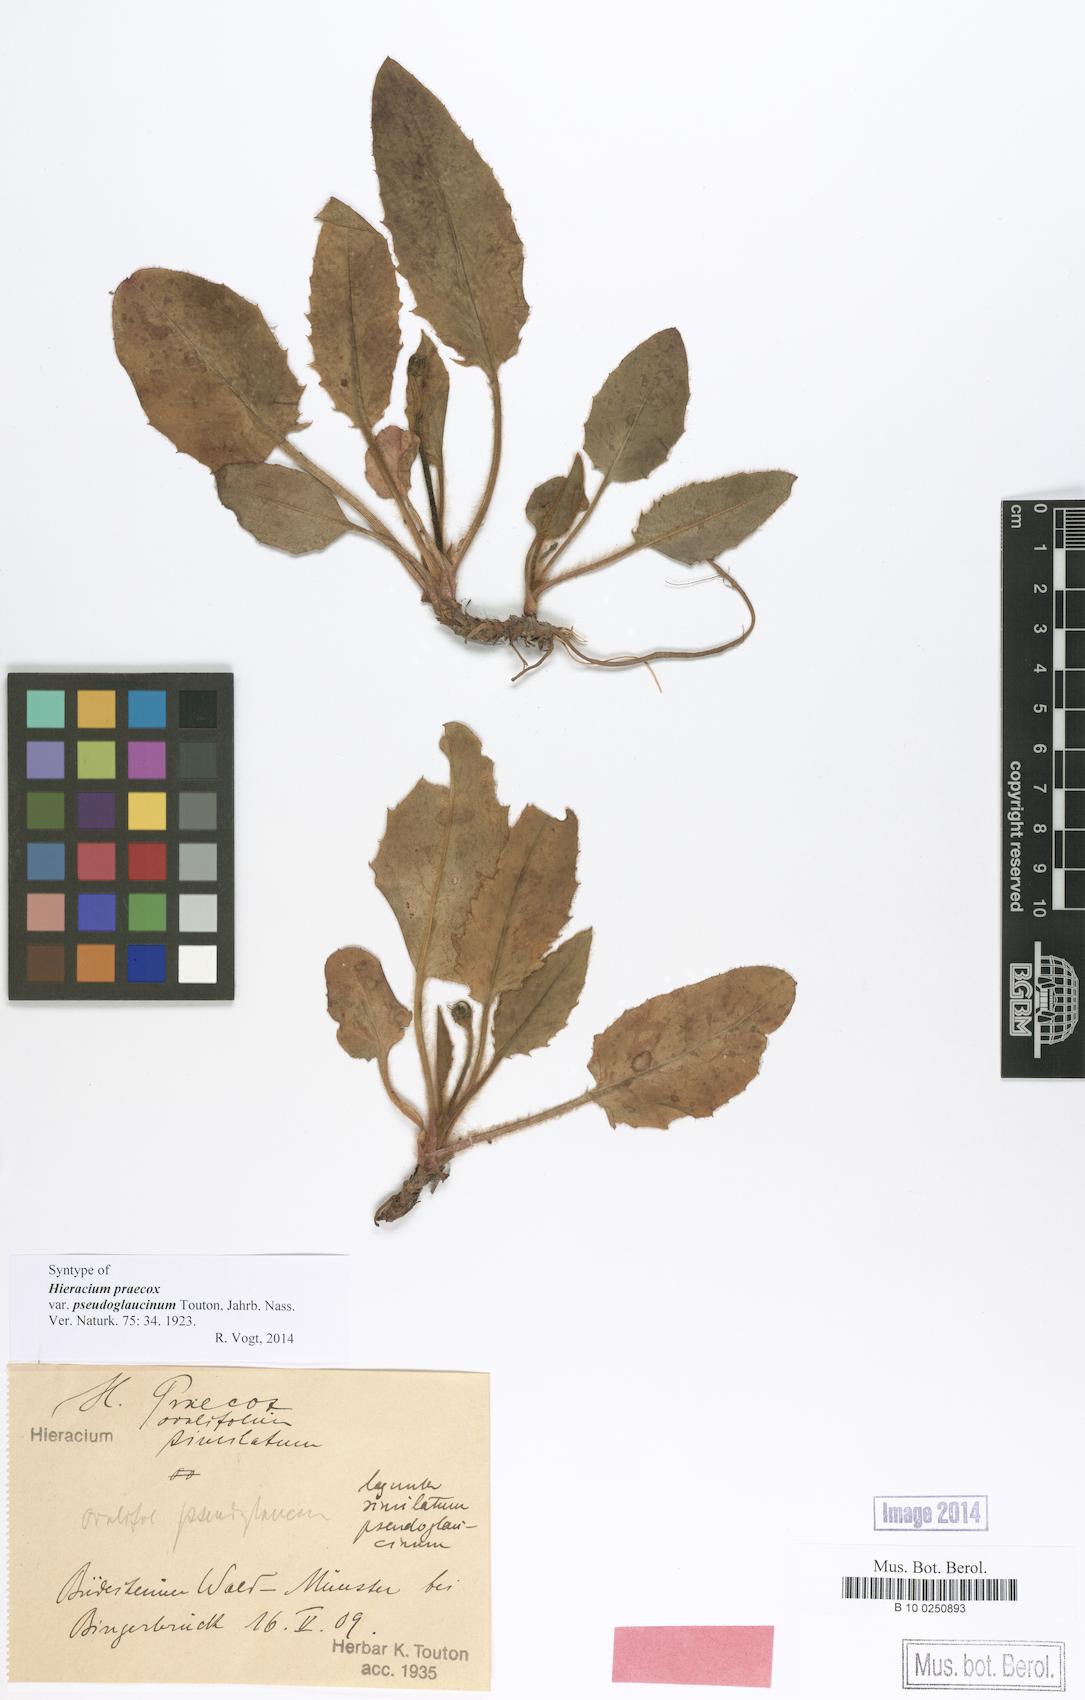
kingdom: Plantae
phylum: Tracheophyta
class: Magnoliopsida
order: Asterales
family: Asteraceae
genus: Hieracium
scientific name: Hieracium praecox
